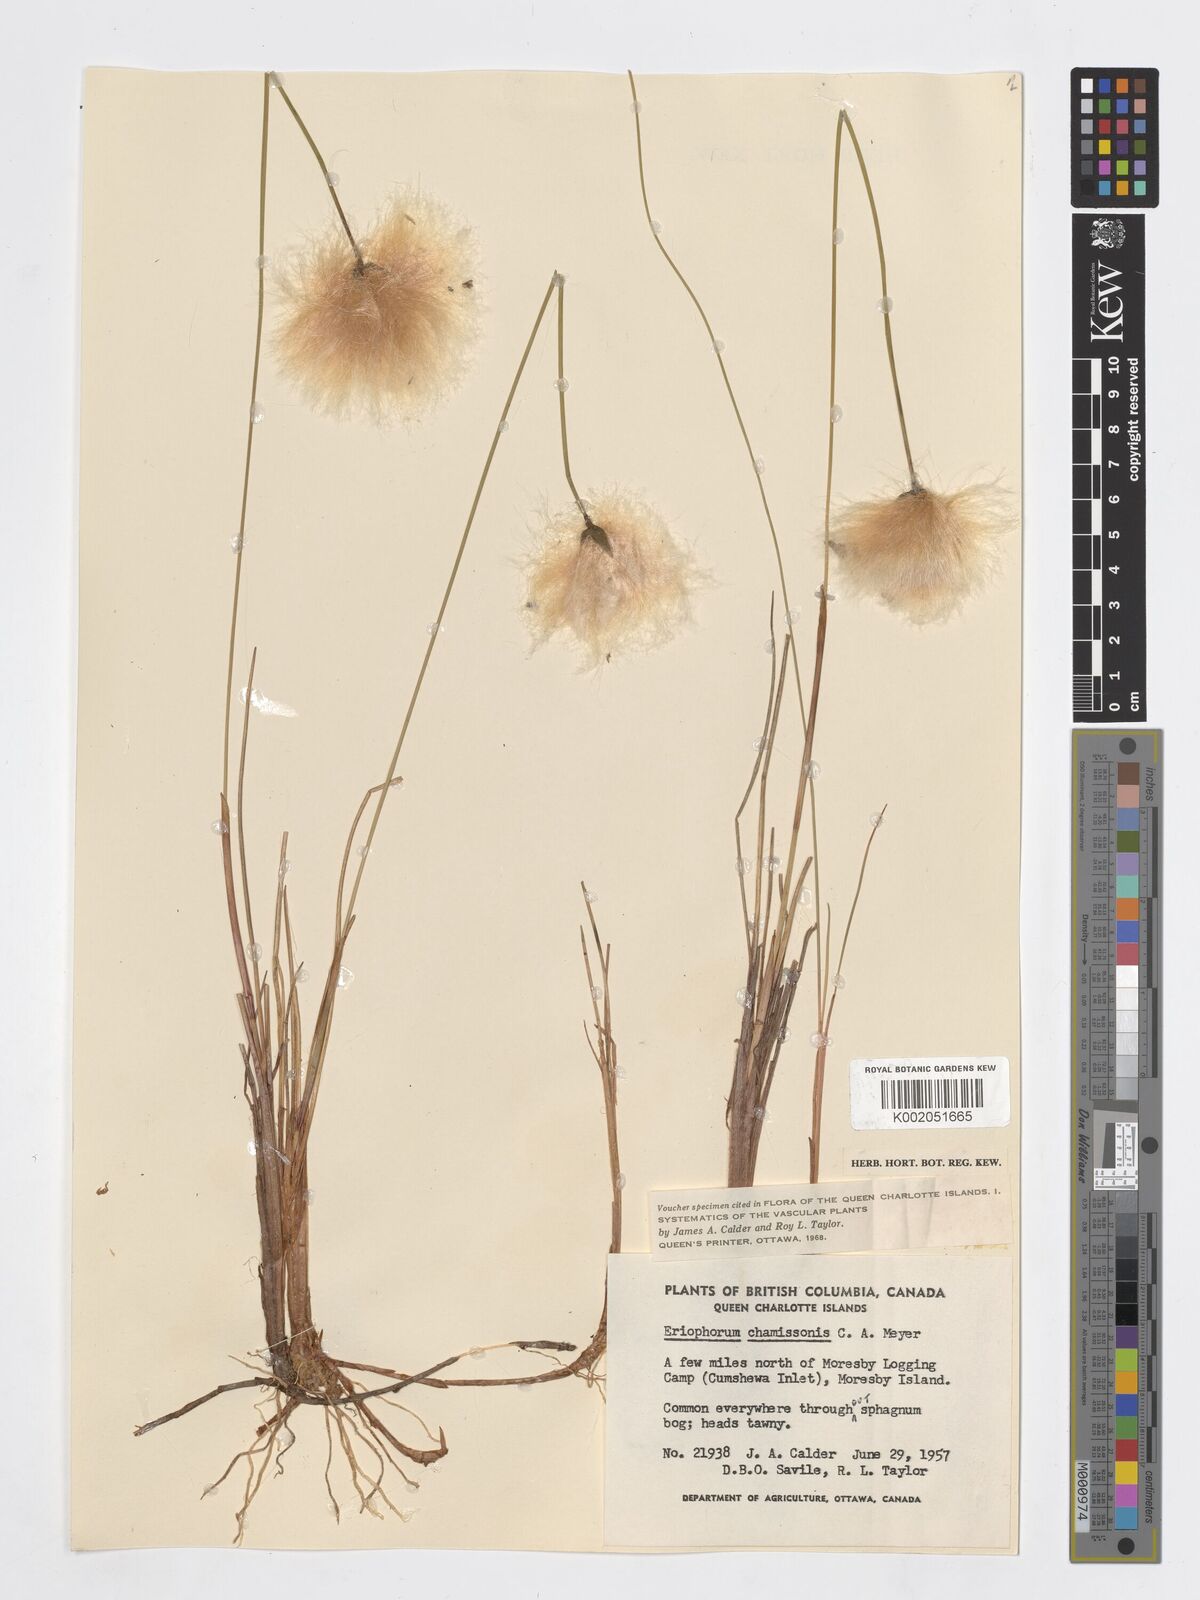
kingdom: Plantae
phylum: Tracheophyta
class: Liliopsida
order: Poales
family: Cyperaceae
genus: Eriophorum
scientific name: Eriophorum chamissonis
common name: Chamisso's cottongrass
